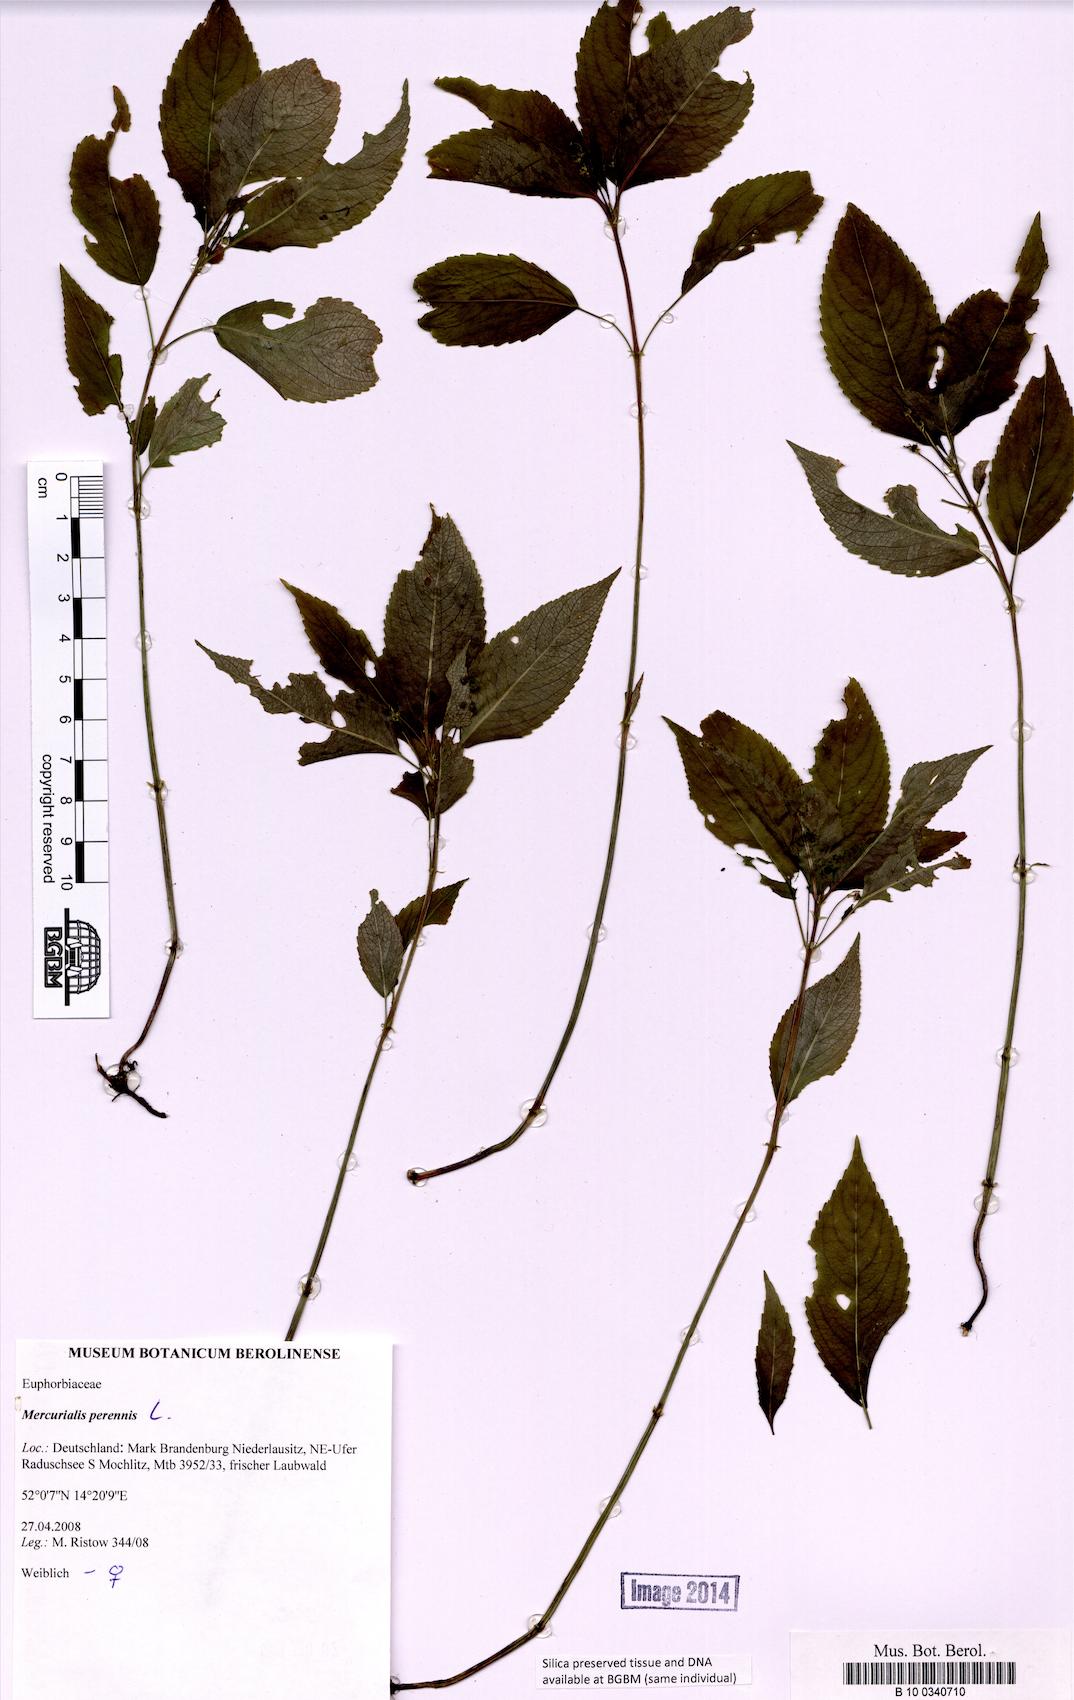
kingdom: Plantae
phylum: Tracheophyta
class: Magnoliopsida
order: Malpighiales
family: Euphorbiaceae
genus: Mercurialis
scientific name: Mercurialis perennis
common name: Dog mercury
